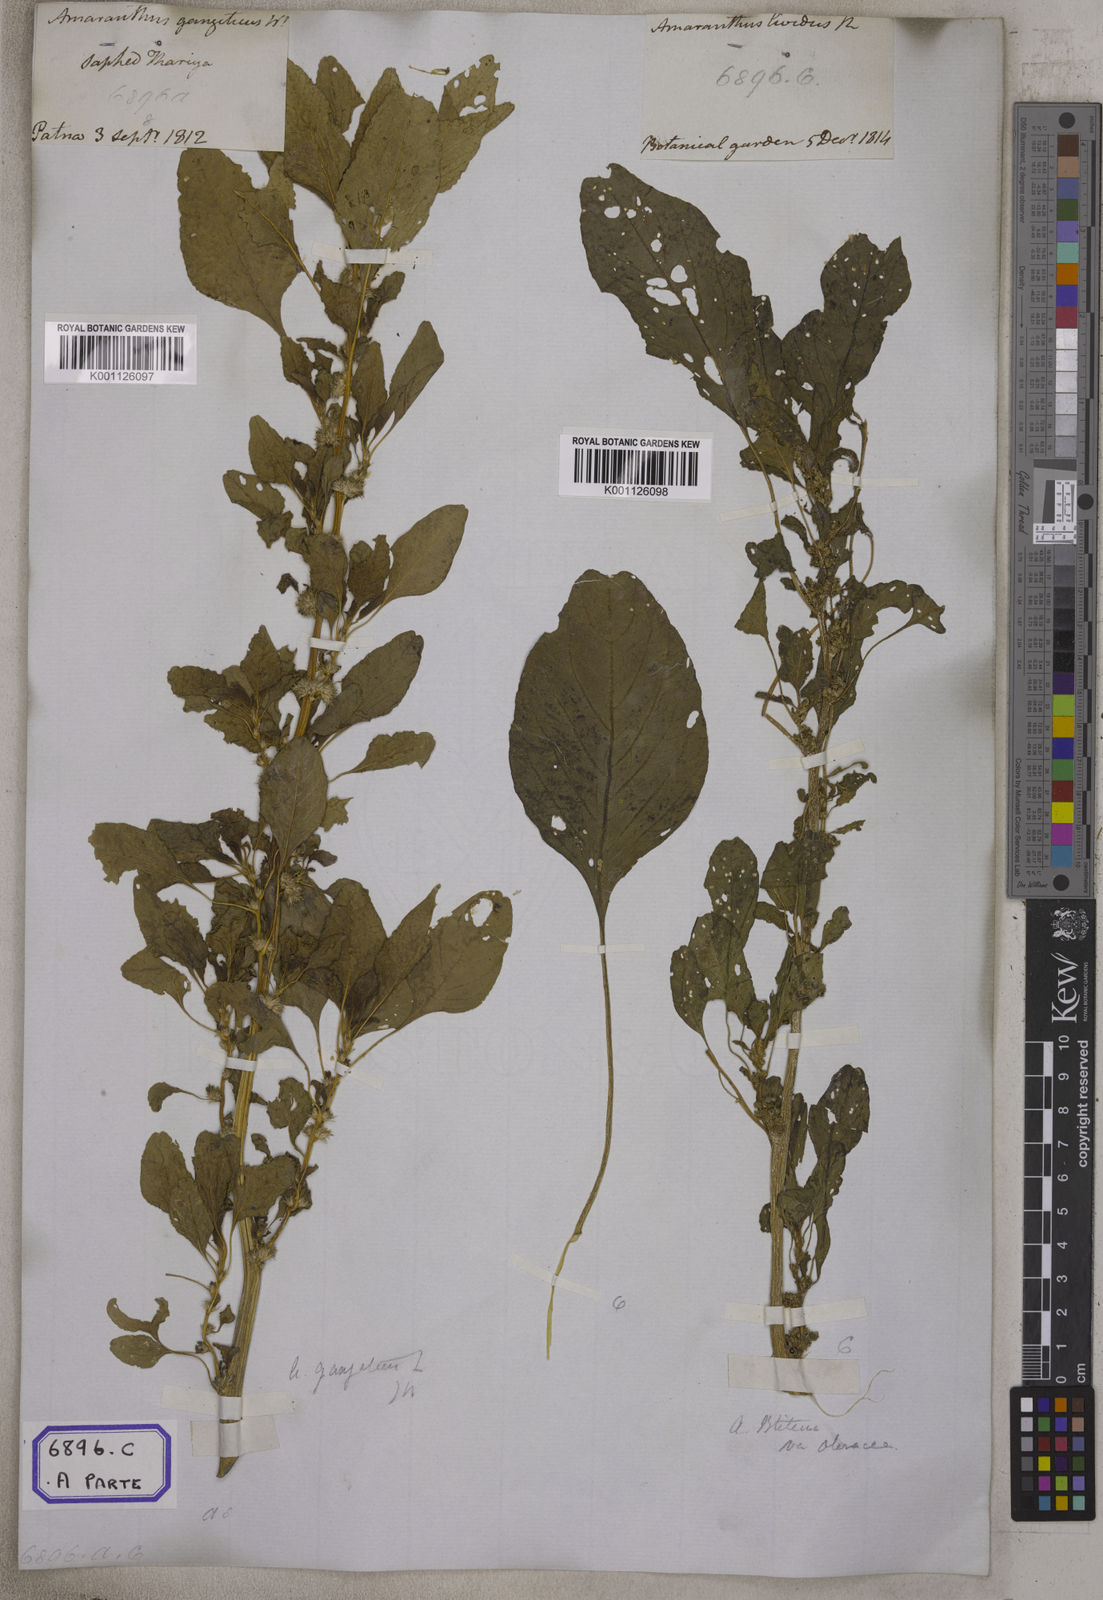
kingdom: Plantae
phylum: Tracheophyta
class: Magnoliopsida
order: Caryophyllales
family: Amaranthaceae
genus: Amaranthus
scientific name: Amaranthus blitum
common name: Purple amaranth
